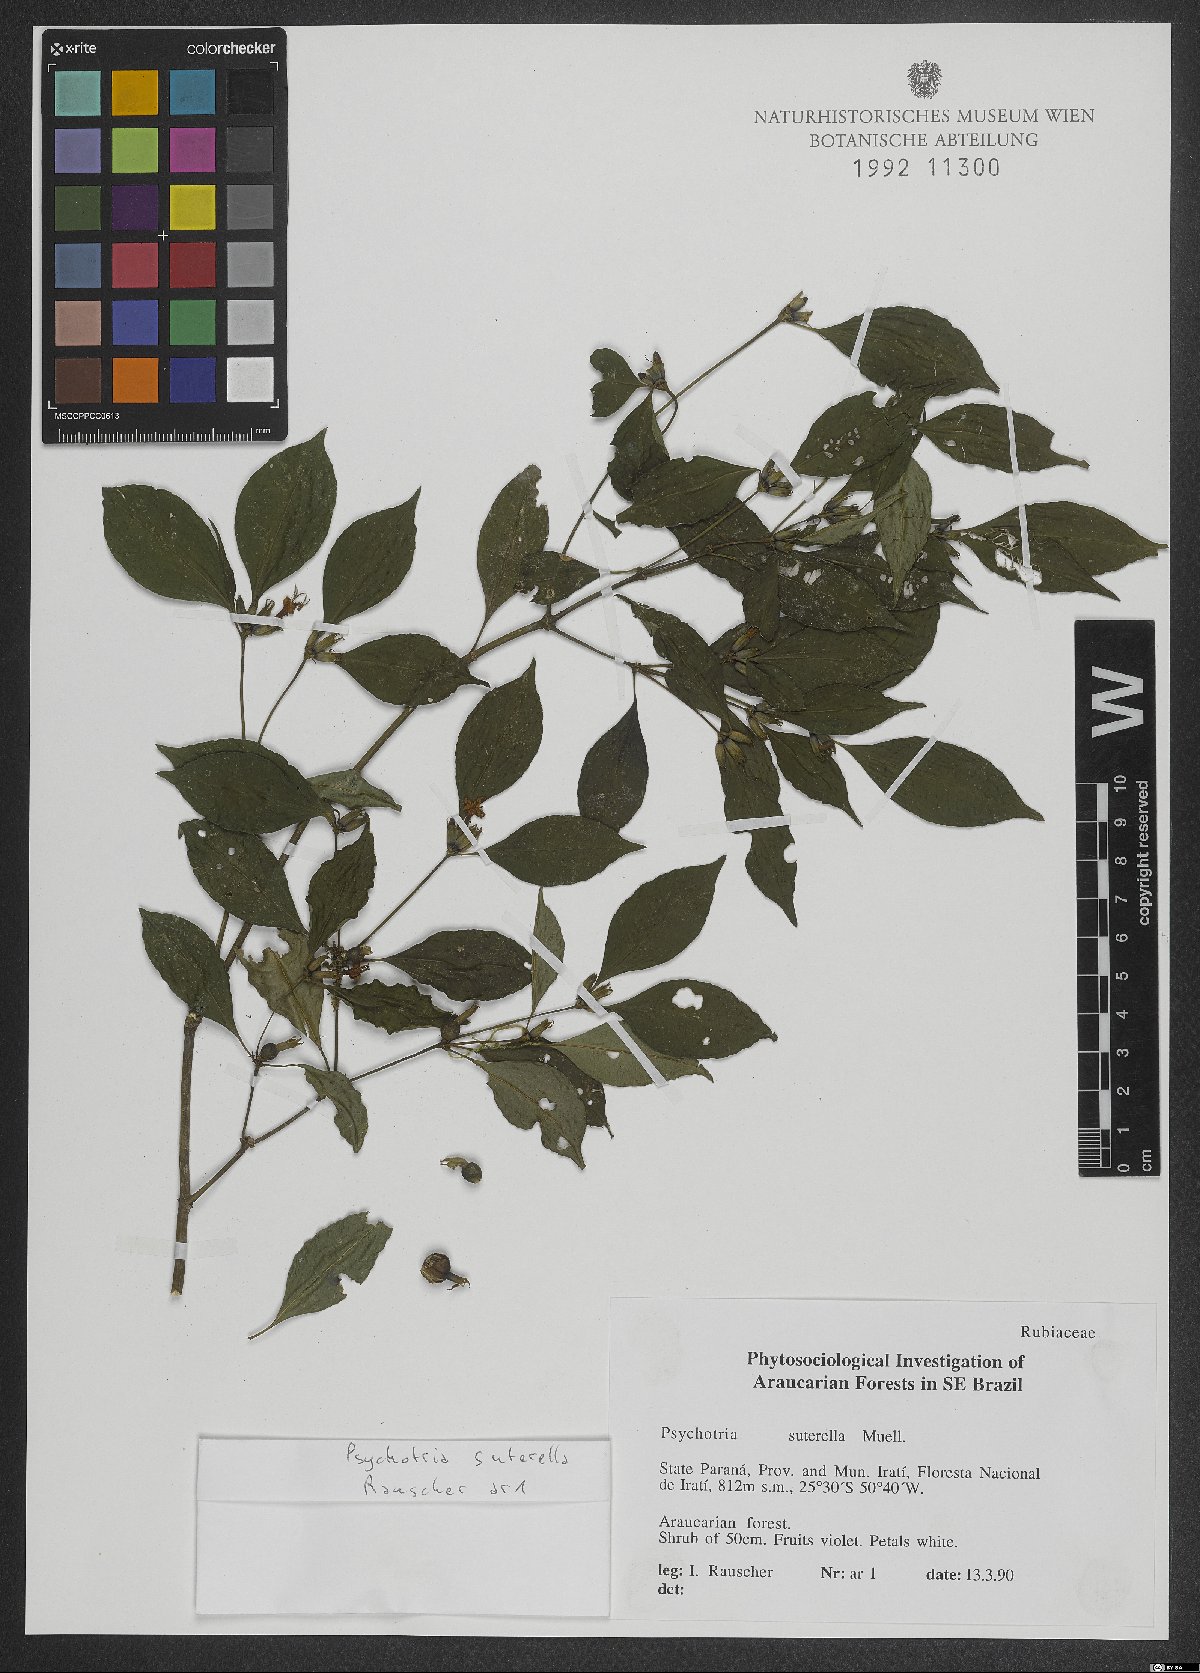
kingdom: Plantae
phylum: Tracheophyta
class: Magnoliopsida
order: Gentianales
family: Rubiaceae
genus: Psychotria
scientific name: Psychotria suterella
